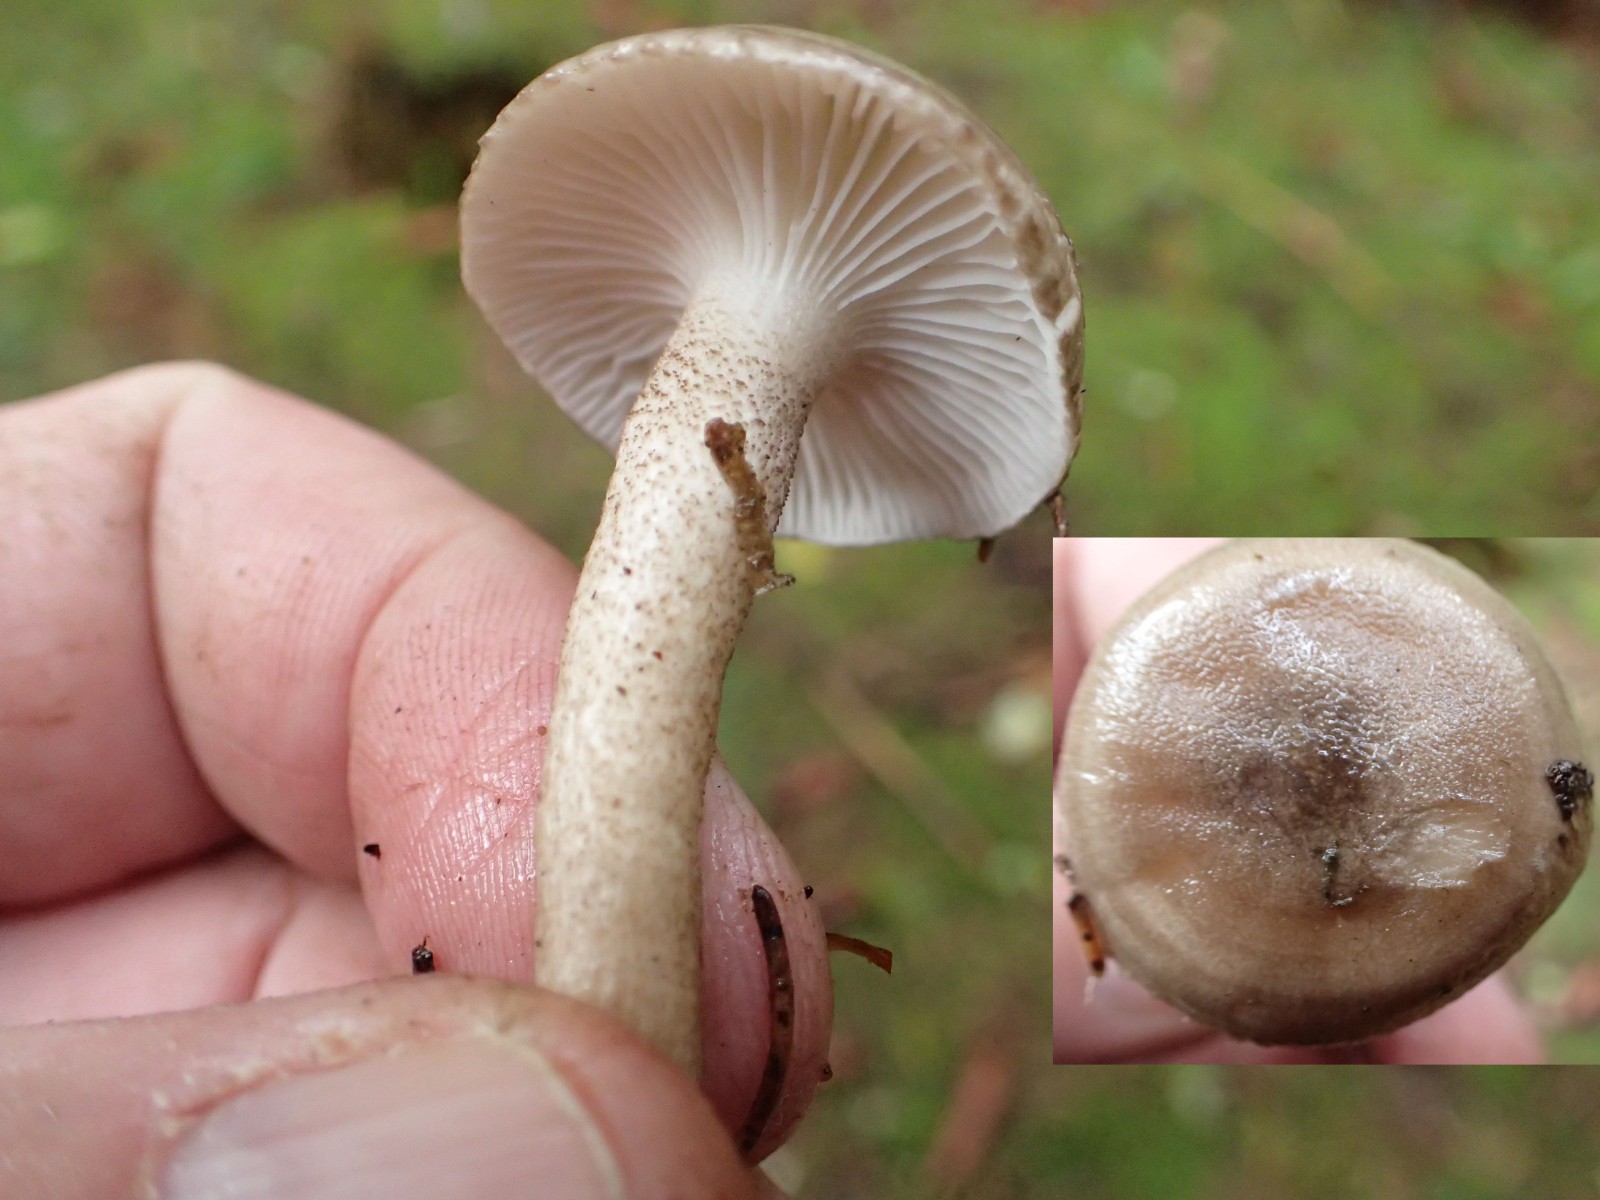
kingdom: Fungi
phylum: Basidiomycota
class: Agaricomycetes
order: Agaricales
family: Hygrophoraceae
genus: Hygrophorus
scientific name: Hygrophorus pustulatus
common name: mørkprikket sneglehat
